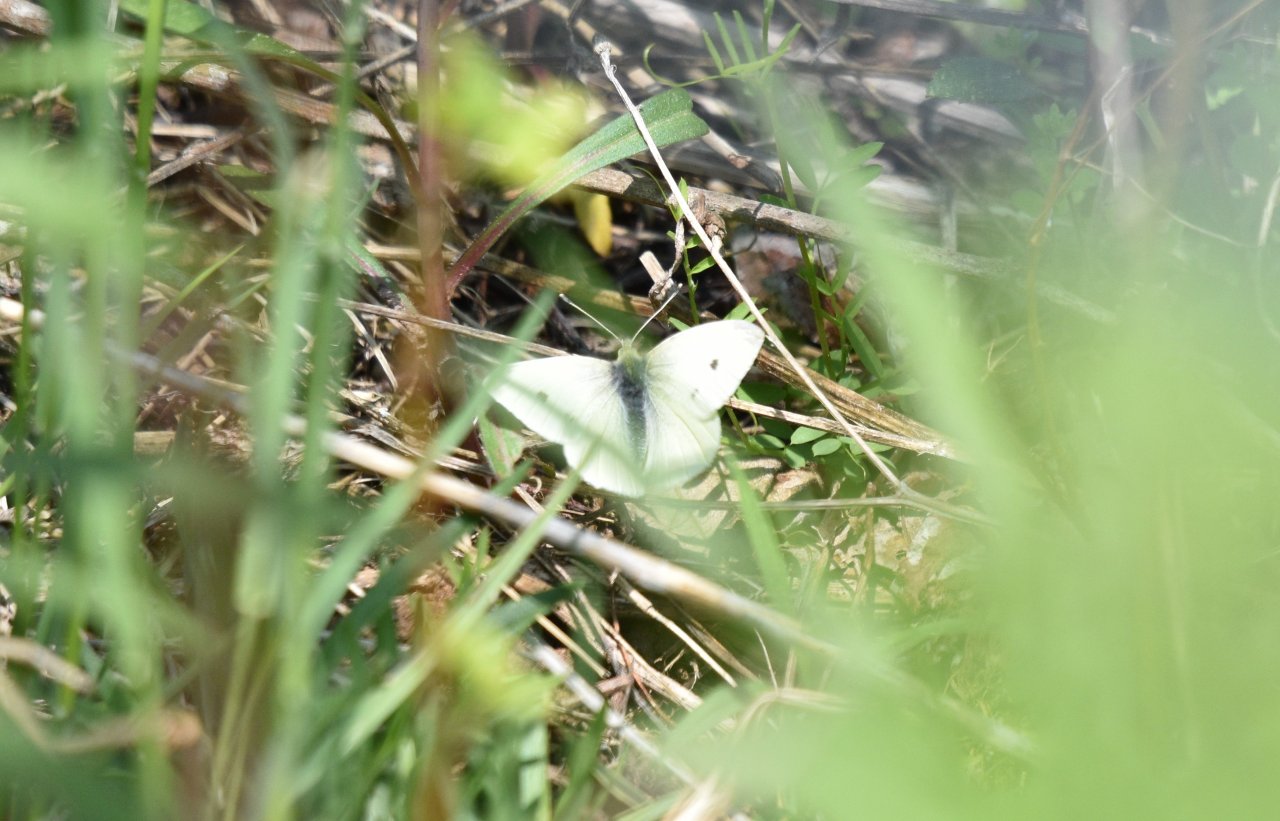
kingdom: Animalia
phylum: Arthropoda
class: Insecta
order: Lepidoptera
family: Pieridae
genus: Pieris
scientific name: Pieris rapae
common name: Cabbage White
